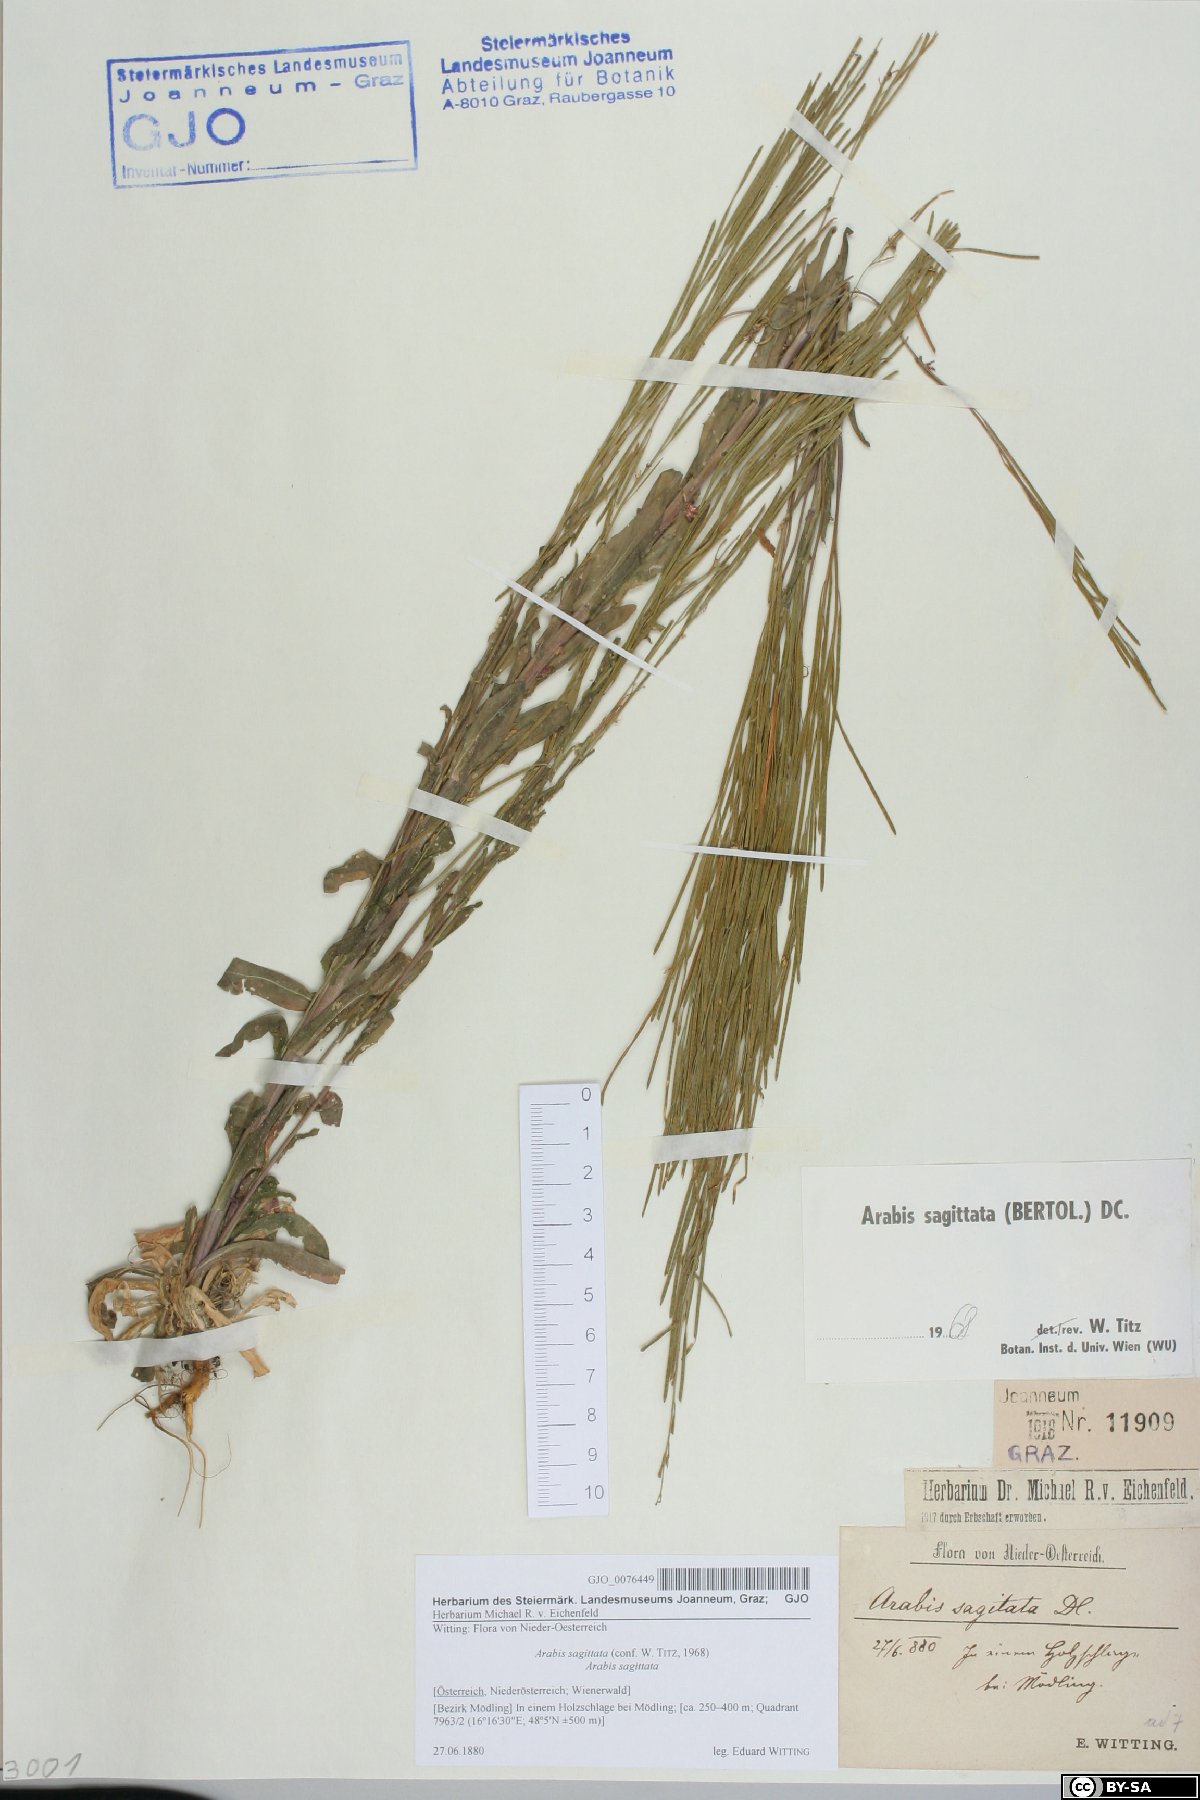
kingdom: Plantae
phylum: Tracheophyta
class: Magnoliopsida
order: Brassicales
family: Brassicaceae
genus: Arabis
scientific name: Arabis sagittata
